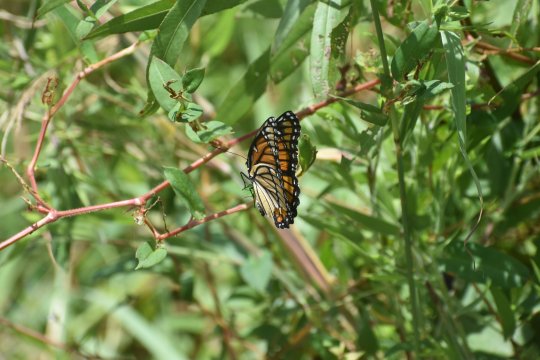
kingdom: Animalia
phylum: Arthropoda
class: Insecta
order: Lepidoptera
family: Nymphalidae
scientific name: Nymphalidae
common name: Brushfoots
